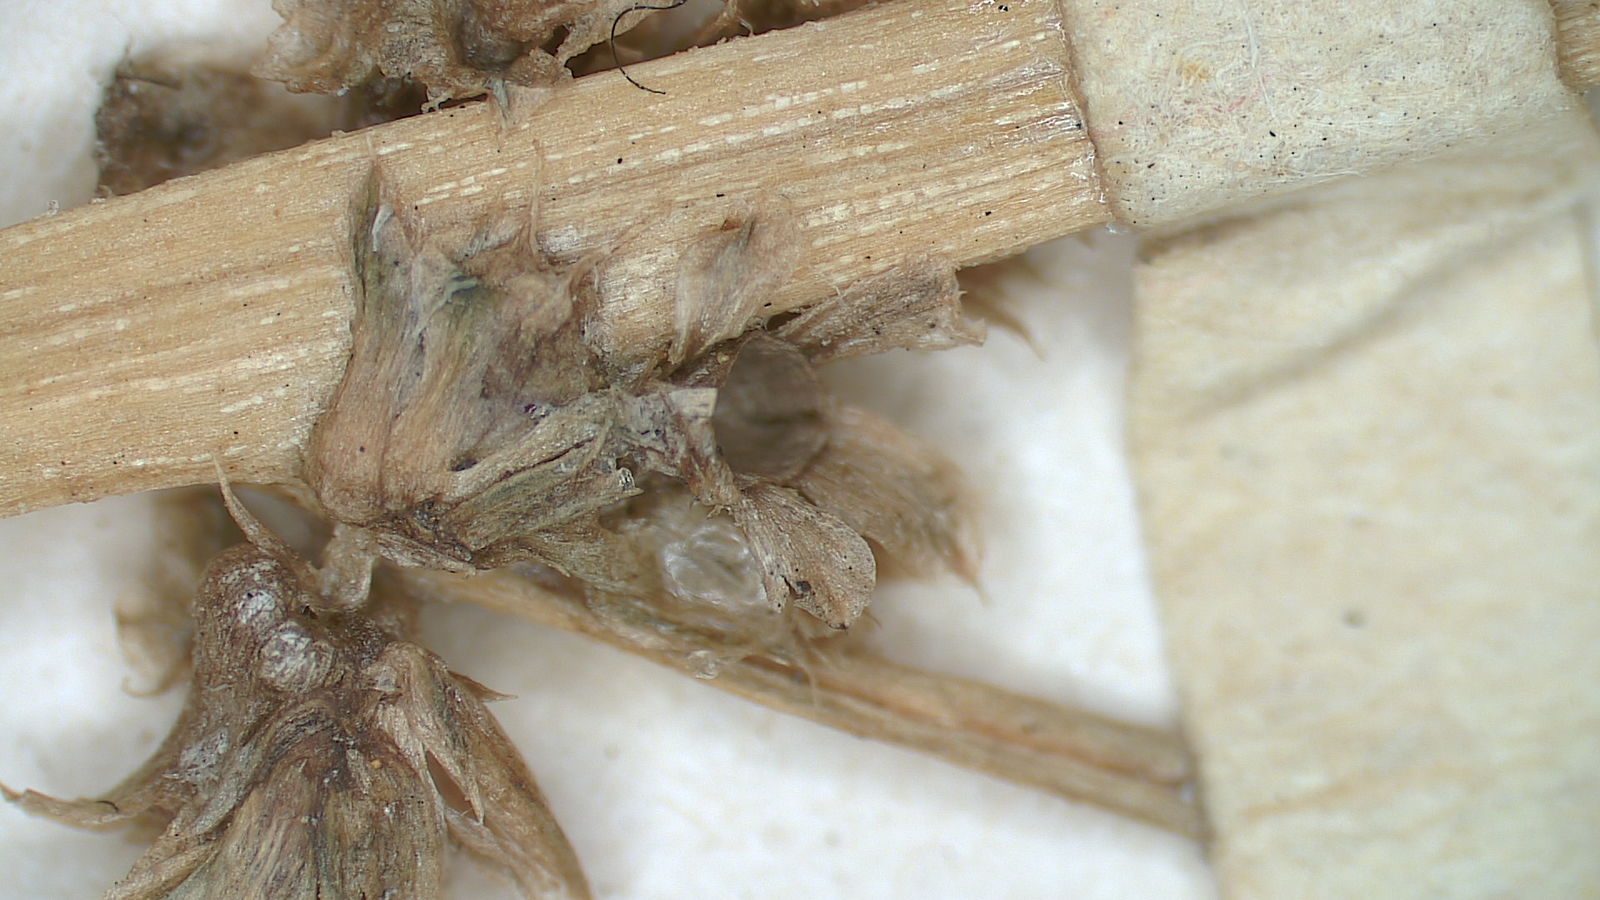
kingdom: Plantae
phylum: Tracheophyta
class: Magnoliopsida
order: Fabales
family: Fabaceae
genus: Dalea
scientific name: Dalea lanata
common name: Woolly dalea
